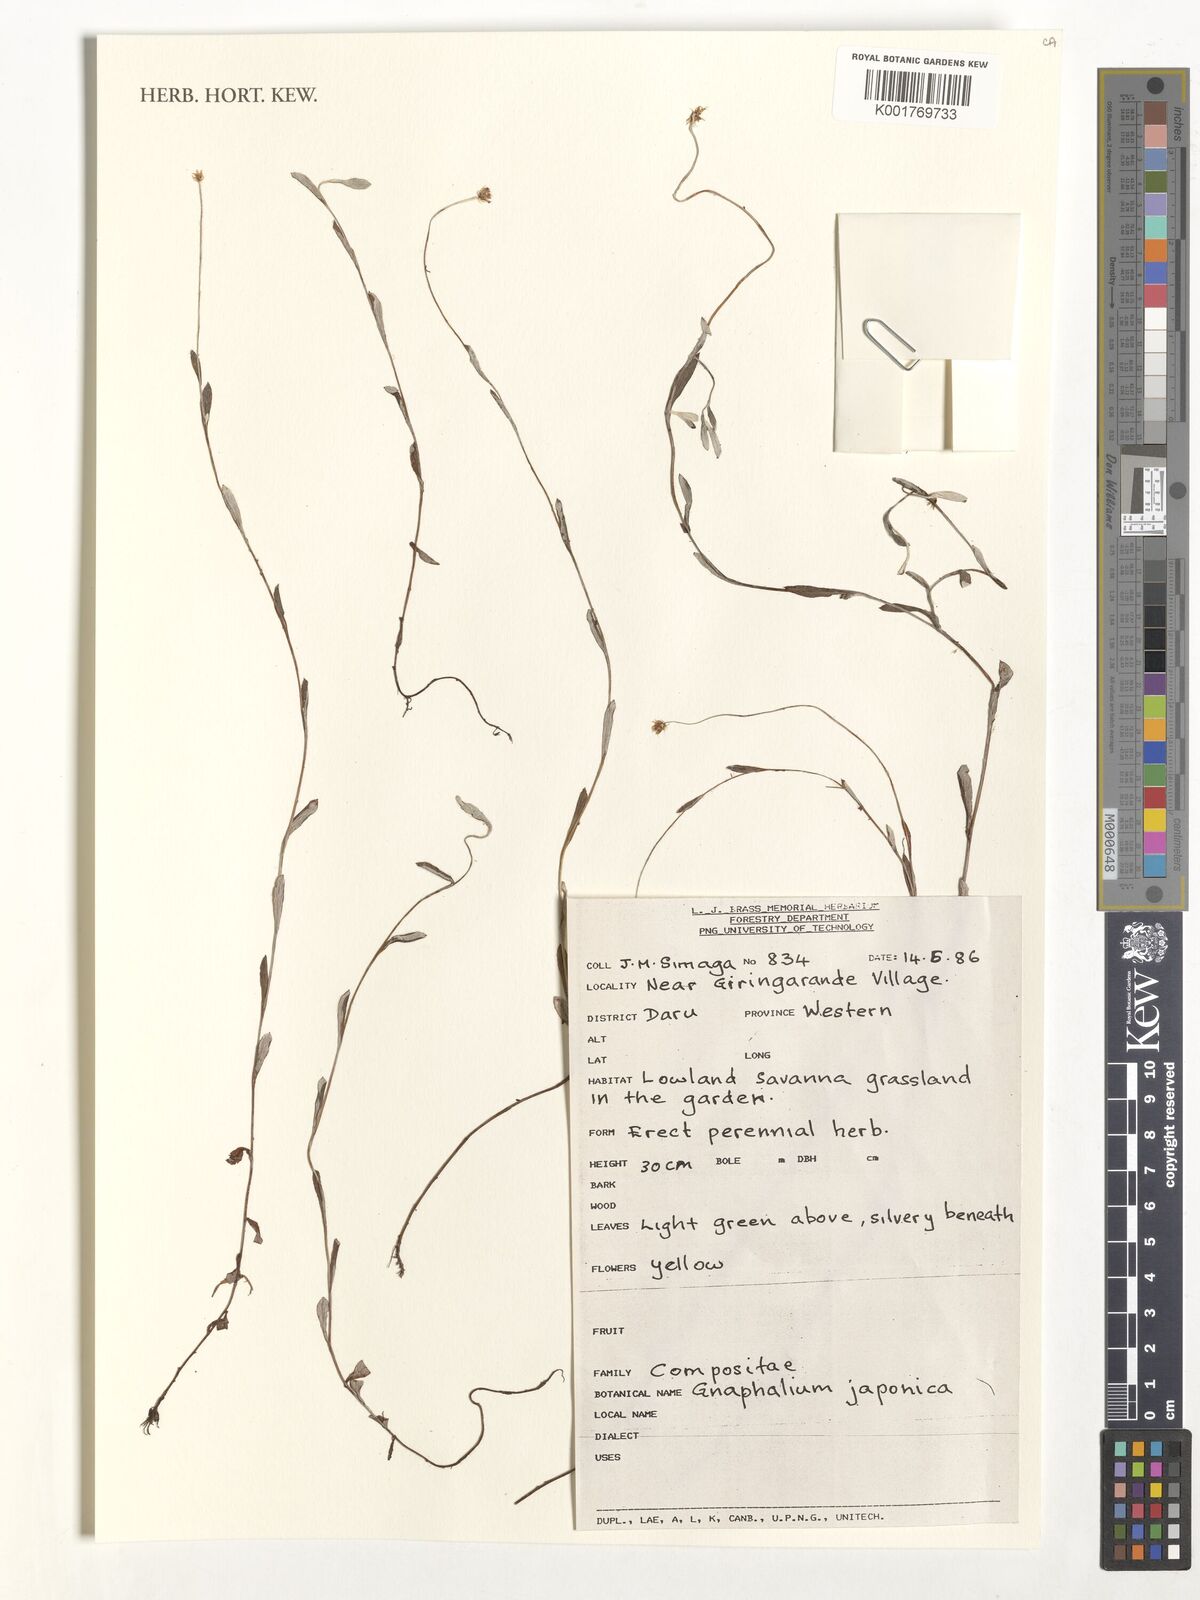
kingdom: Plantae
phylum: Tracheophyta
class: Magnoliopsida
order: Asterales
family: Asteraceae
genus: Gnaphalium
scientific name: Gnaphalium
